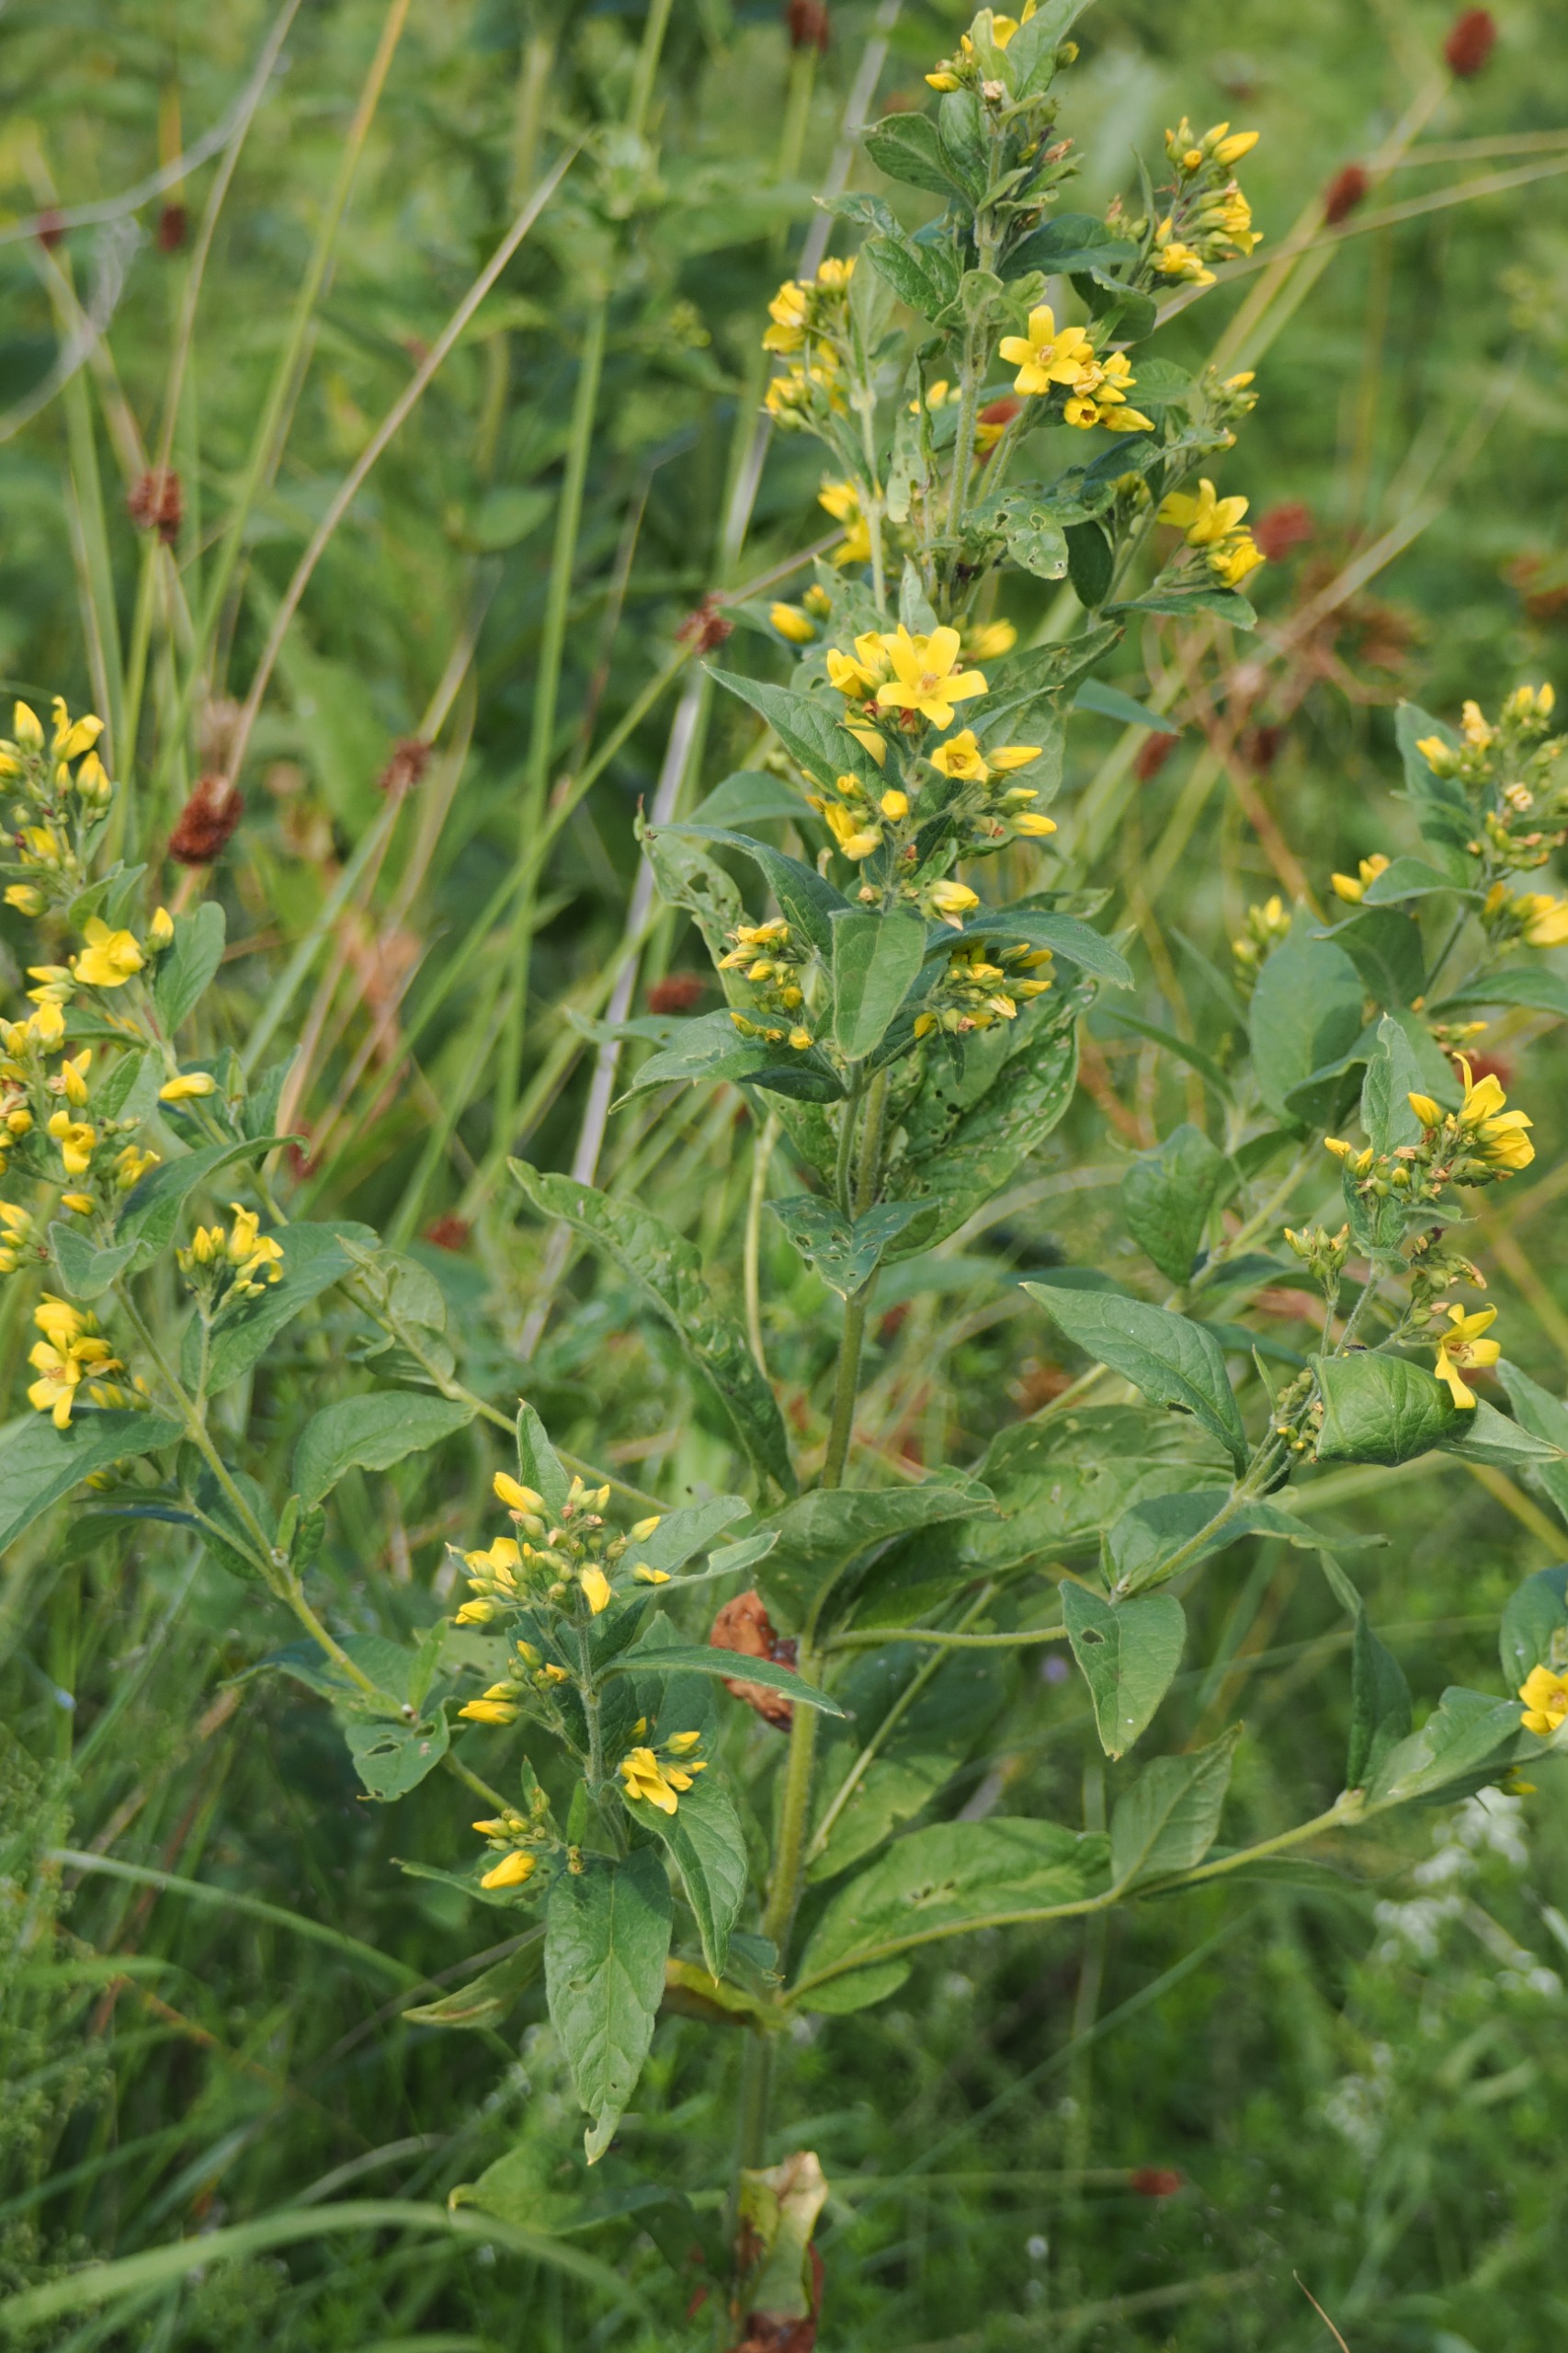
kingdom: Plantae
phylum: Tracheophyta
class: Magnoliopsida
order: Ericales
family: Primulaceae
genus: Lysimachia
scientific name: Lysimachia vulgaris
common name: Almindelig fredløs
